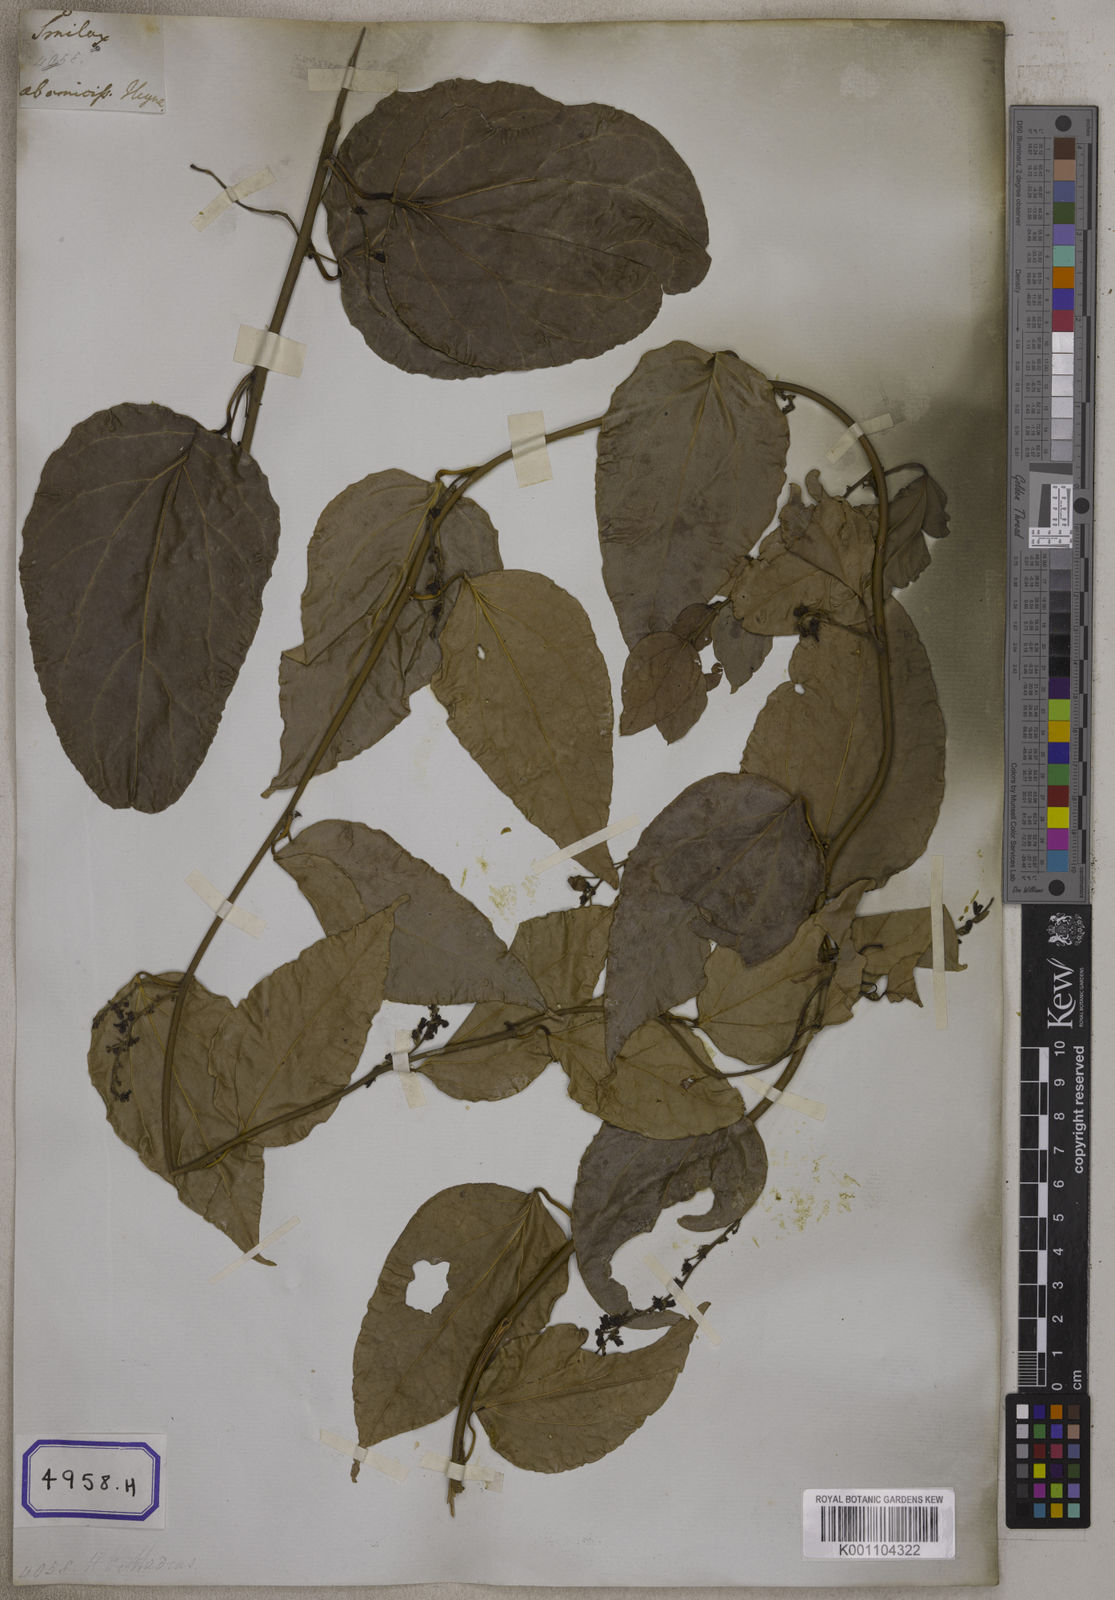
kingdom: Plantae
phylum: Tracheophyta
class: Magnoliopsida
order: Ranunculales
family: Menispermaceae
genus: Cocculus
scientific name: Cocculus
